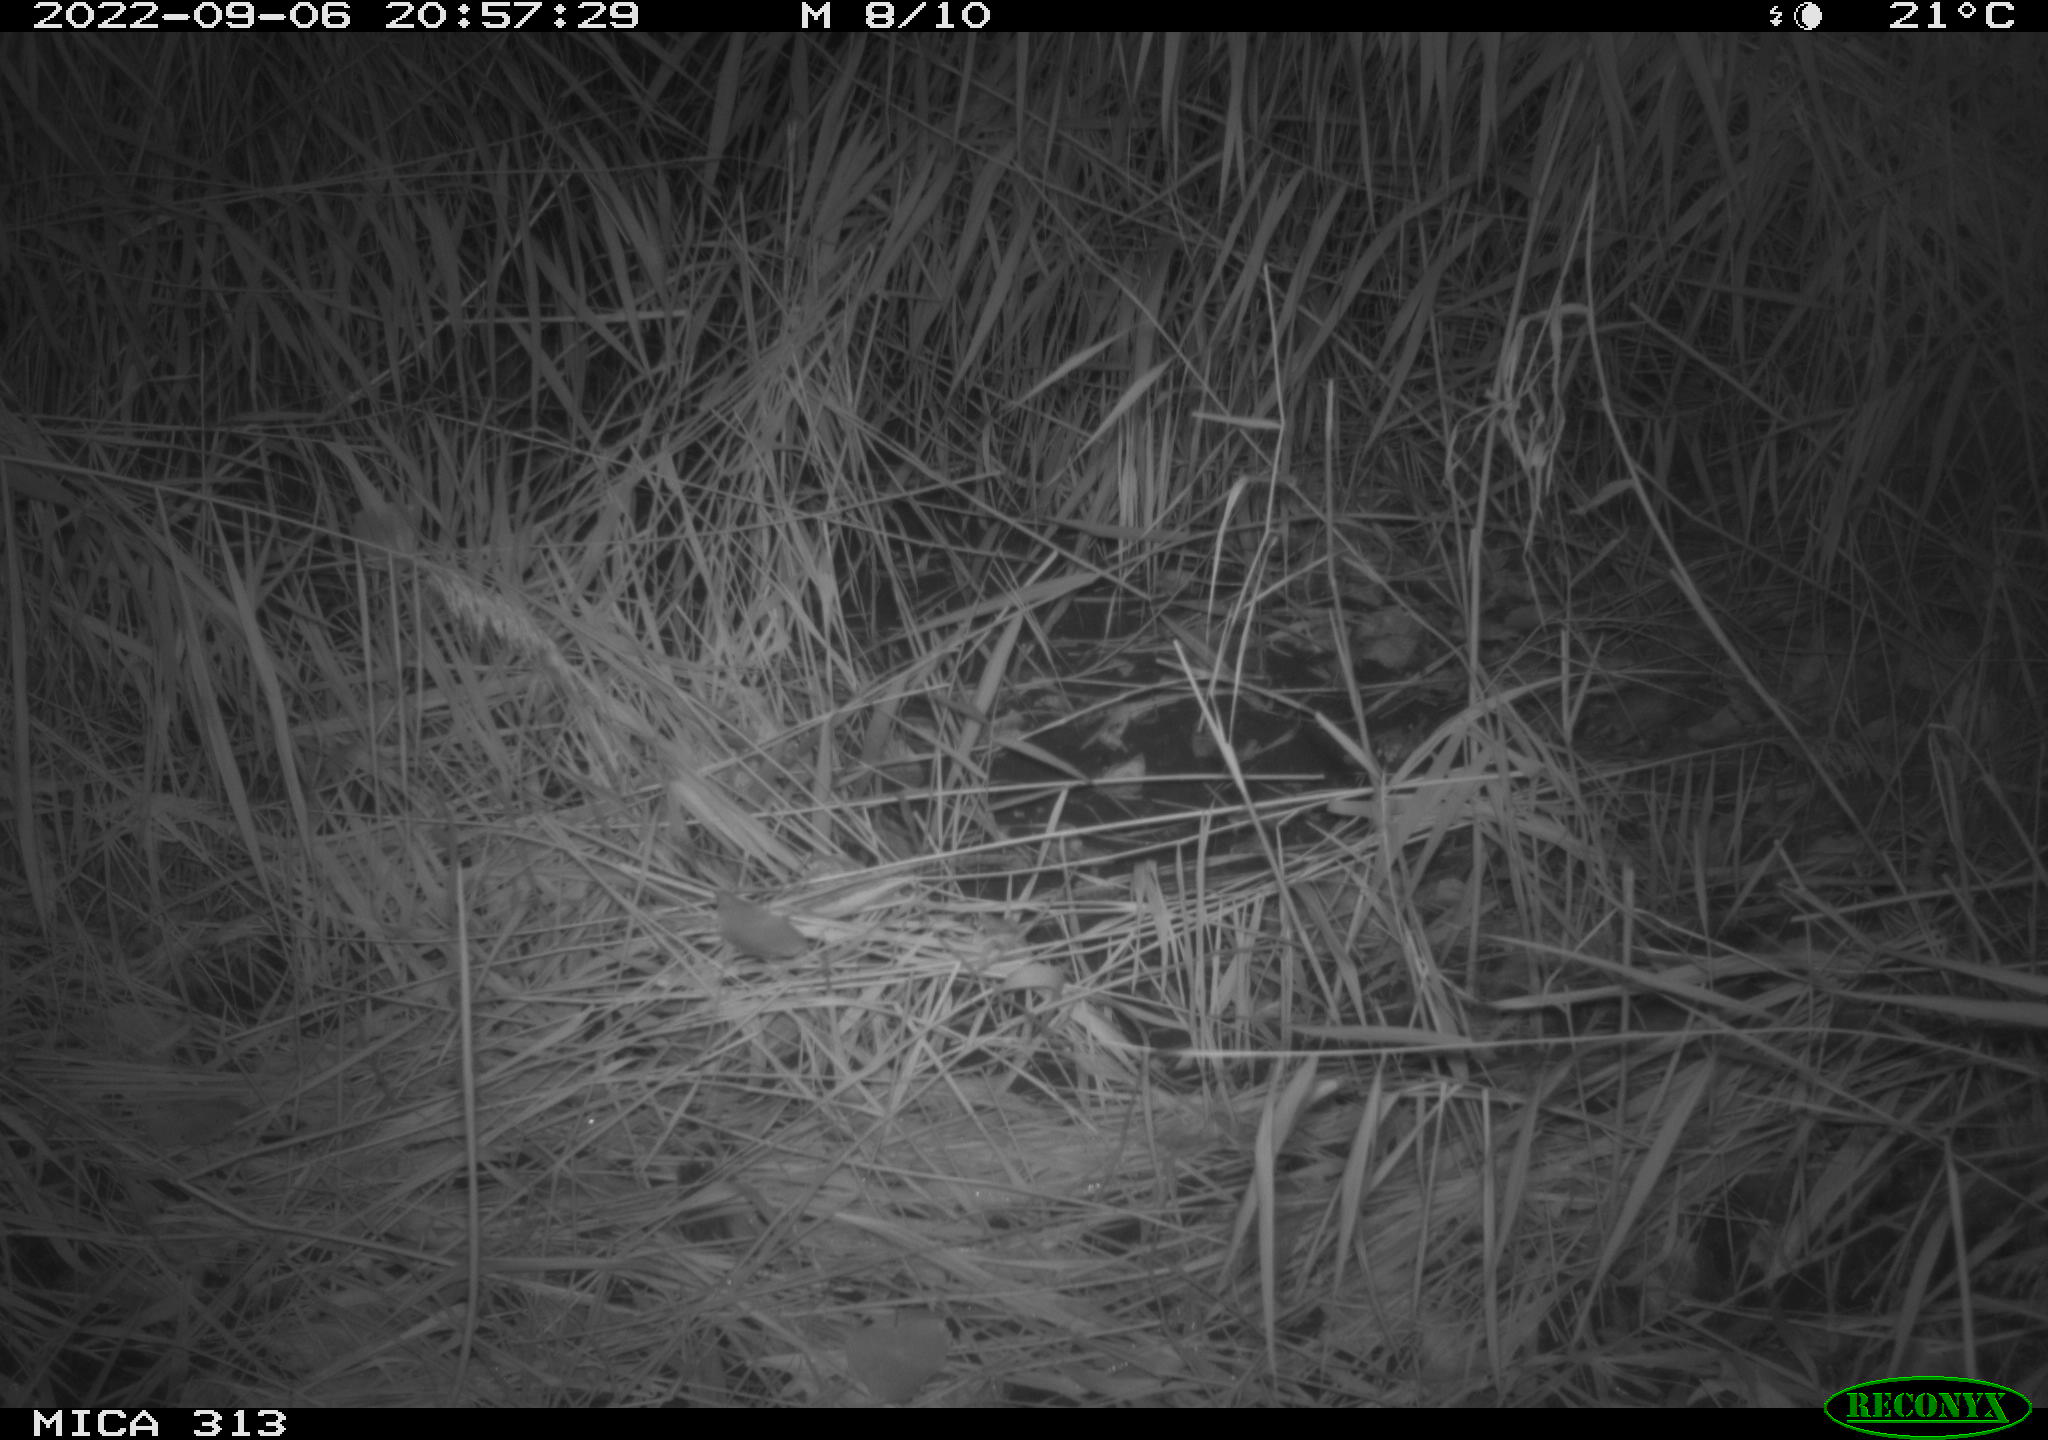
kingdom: Animalia
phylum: Chordata
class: Mammalia
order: Rodentia
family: Muridae
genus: Rattus
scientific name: Rattus norvegicus
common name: Brown rat
